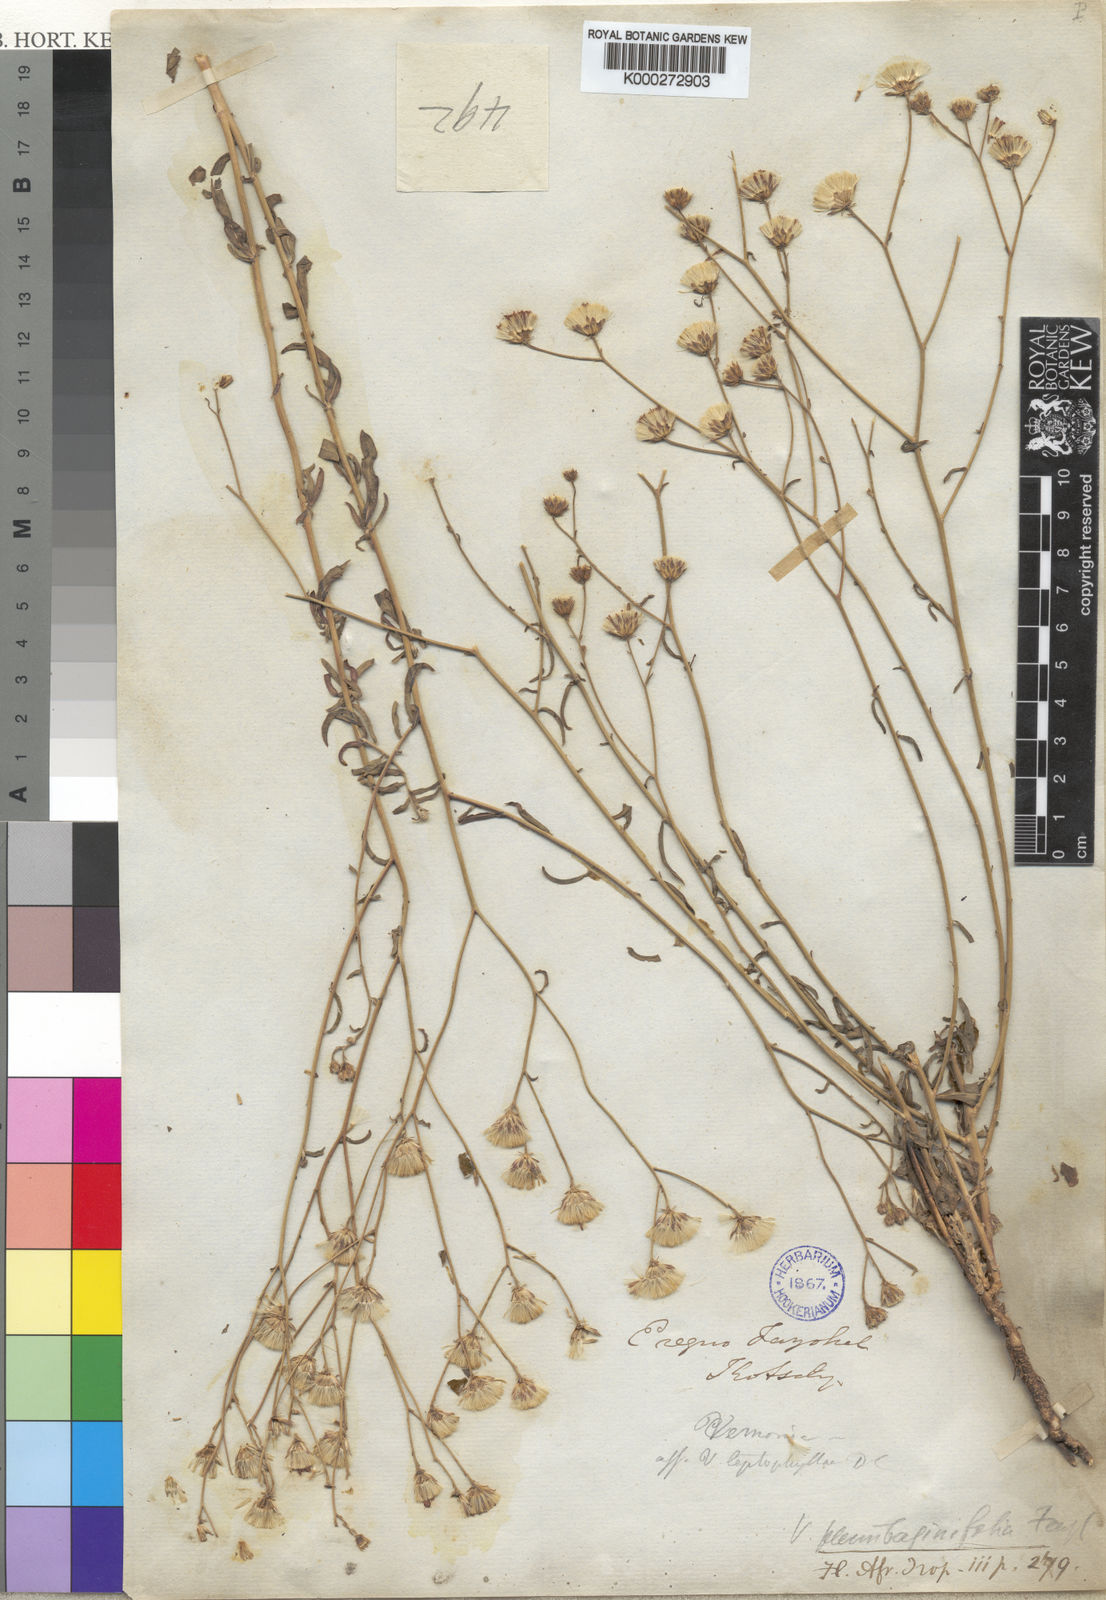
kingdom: Plantae
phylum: Tracheophyta
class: Magnoliopsida
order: Asterales
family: Asteraceae
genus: Vernonia
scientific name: Vernonia
